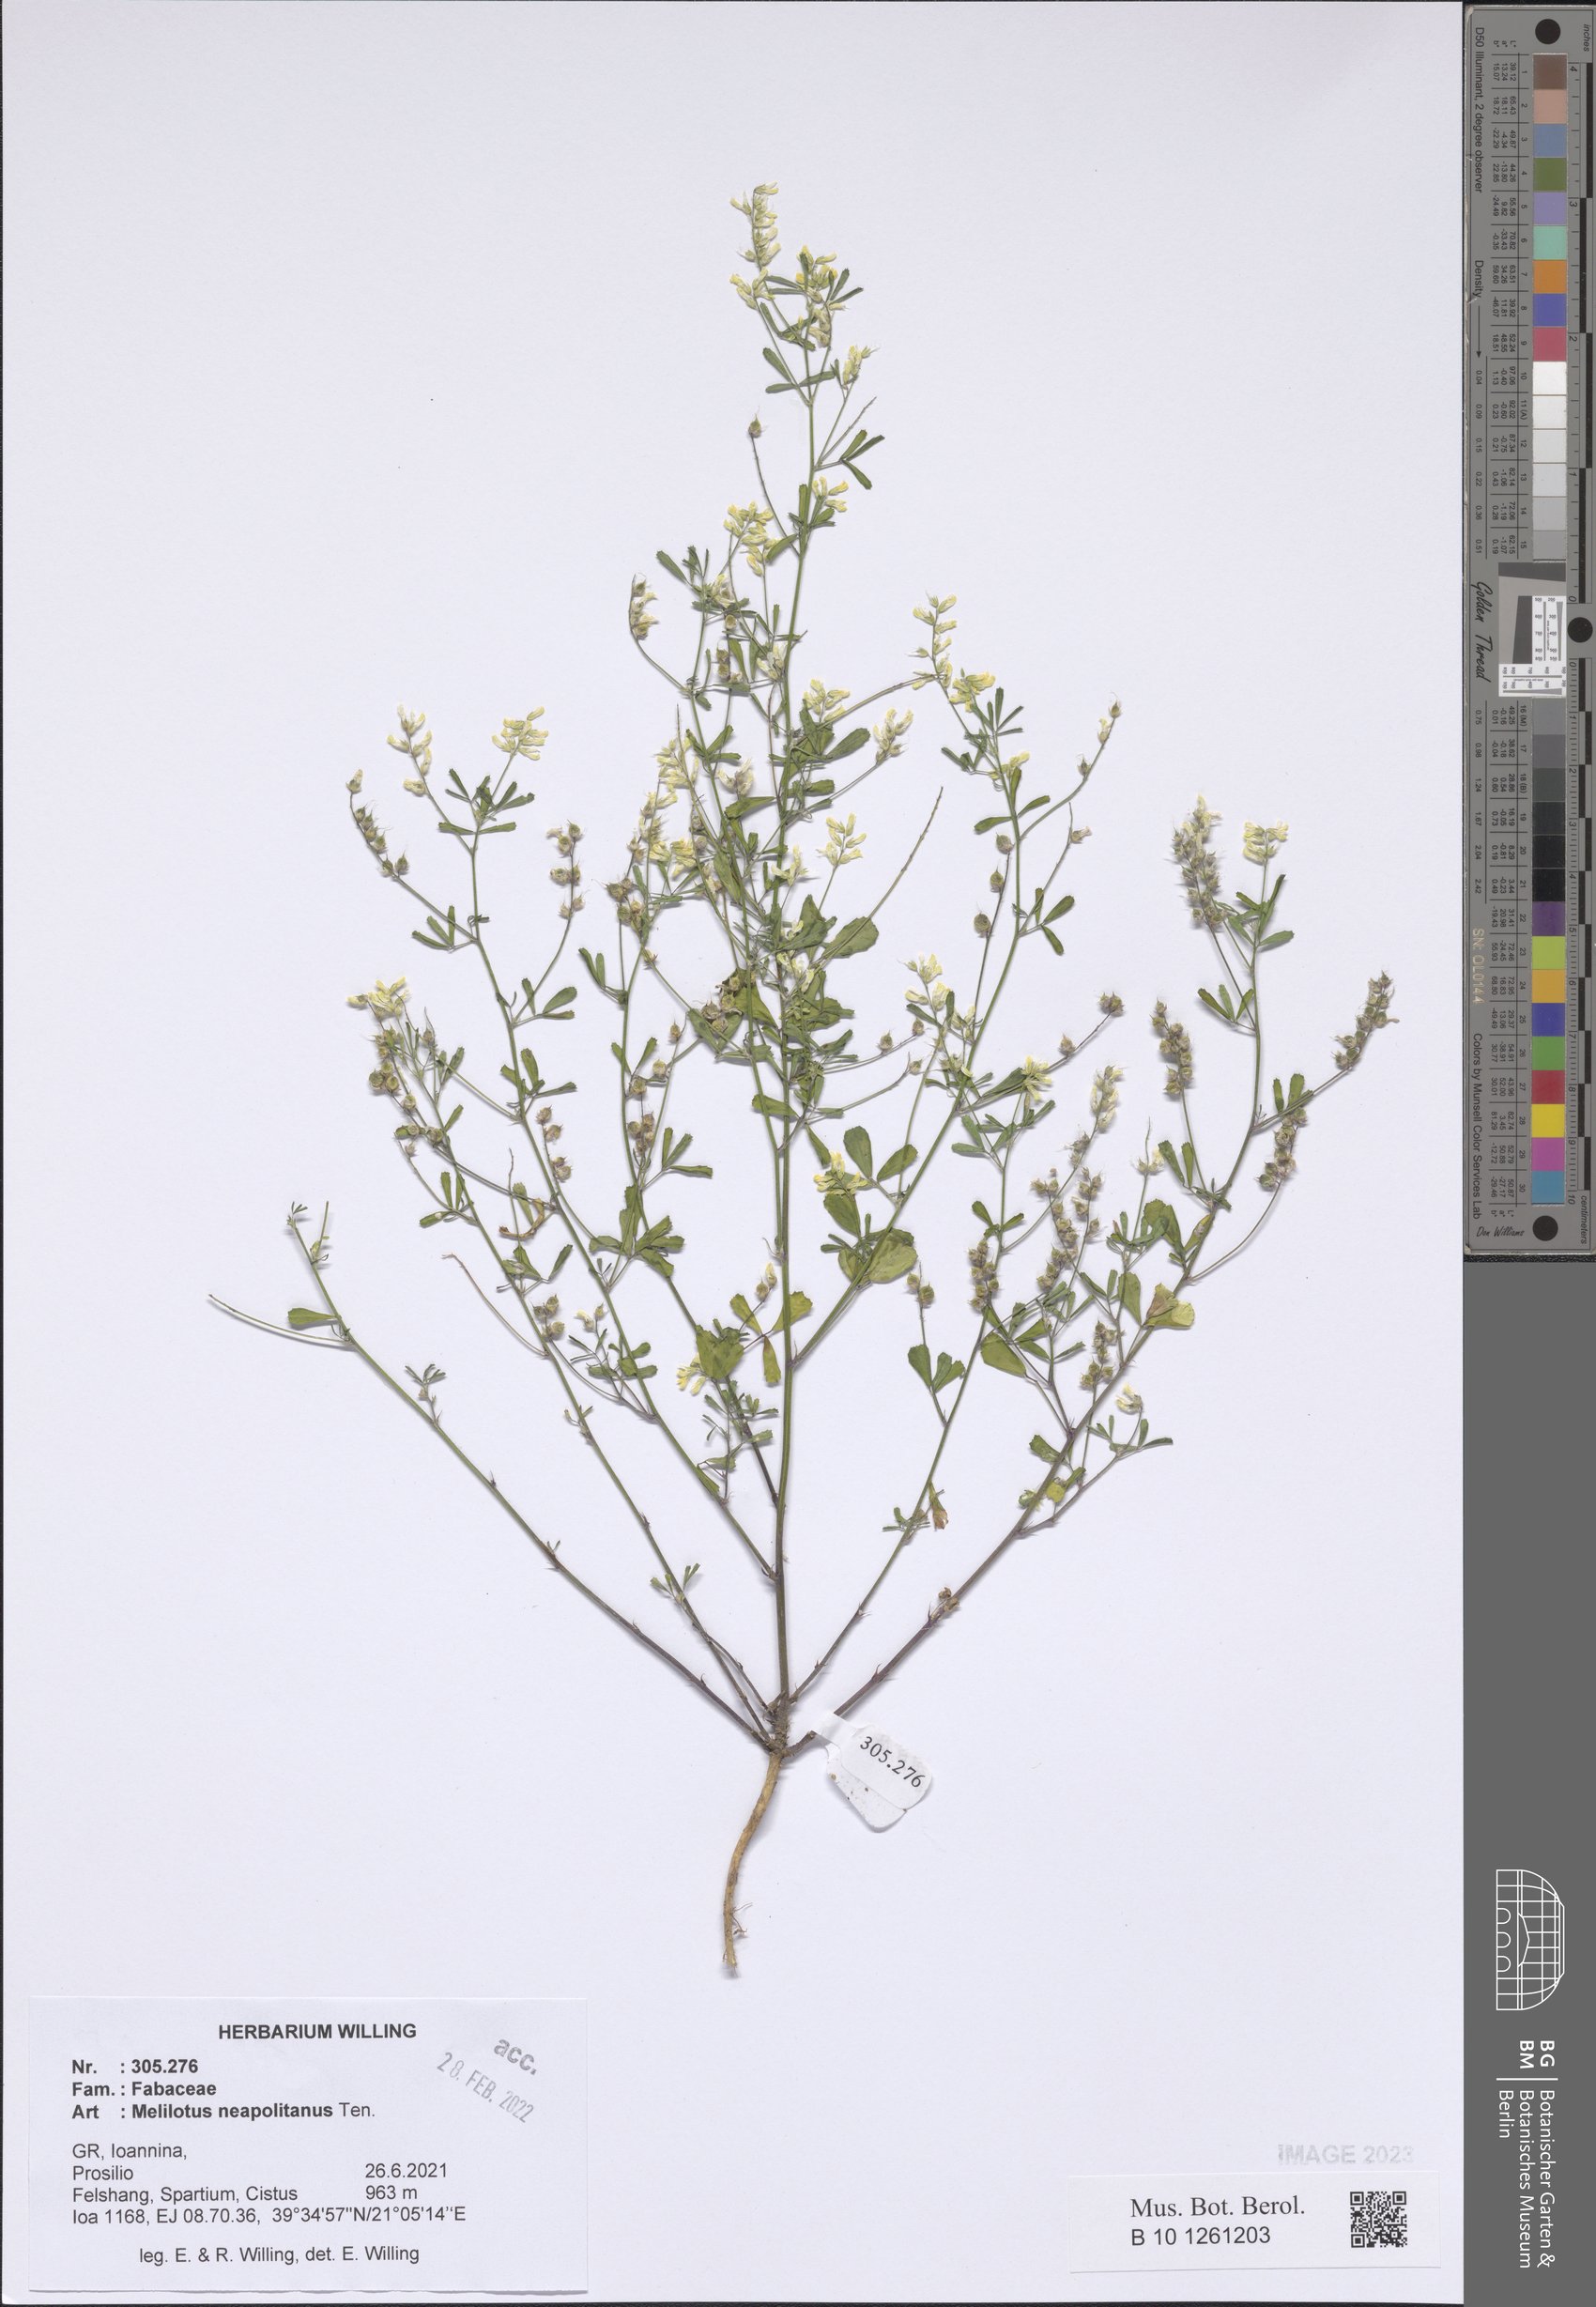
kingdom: Plantae
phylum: Tracheophyta
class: Magnoliopsida
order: Fabales
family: Fabaceae
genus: Melilotus
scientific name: Melilotus neapolitanus
